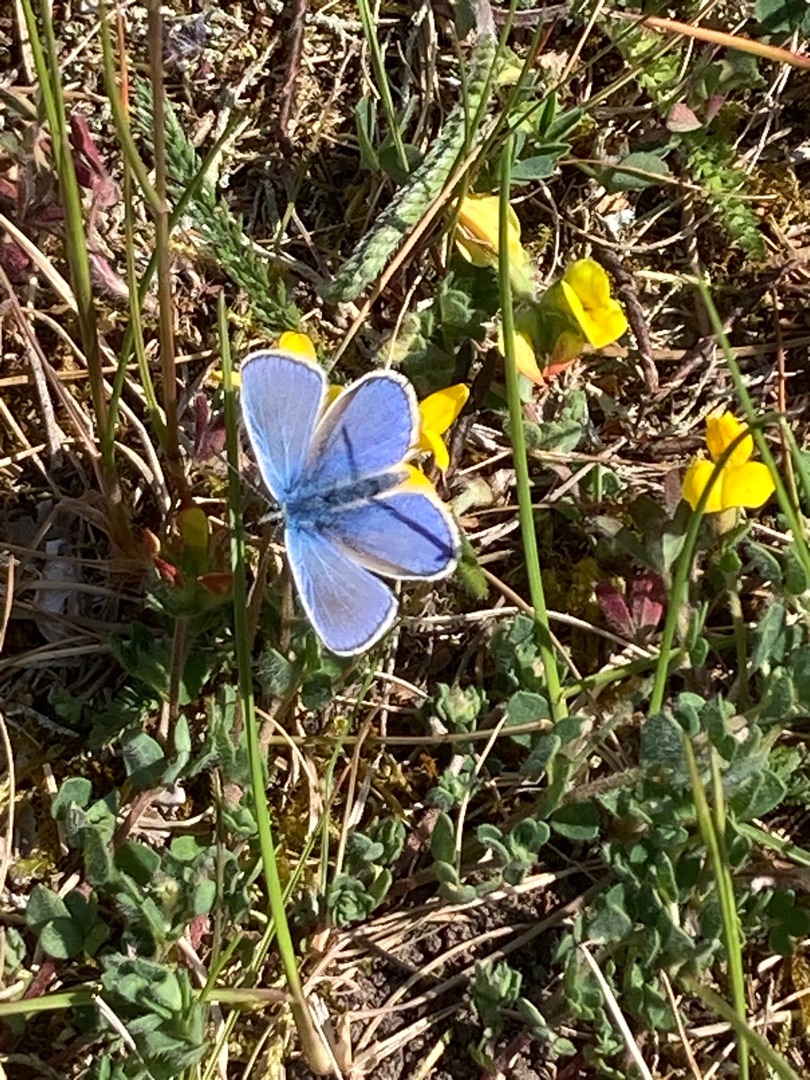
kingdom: Animalia
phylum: Arthropoda
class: Insecta
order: Lepidoptera
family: Lycaenidae
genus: Polyommatus
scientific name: Polyommatus icarus
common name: Almindelig blåfugl
